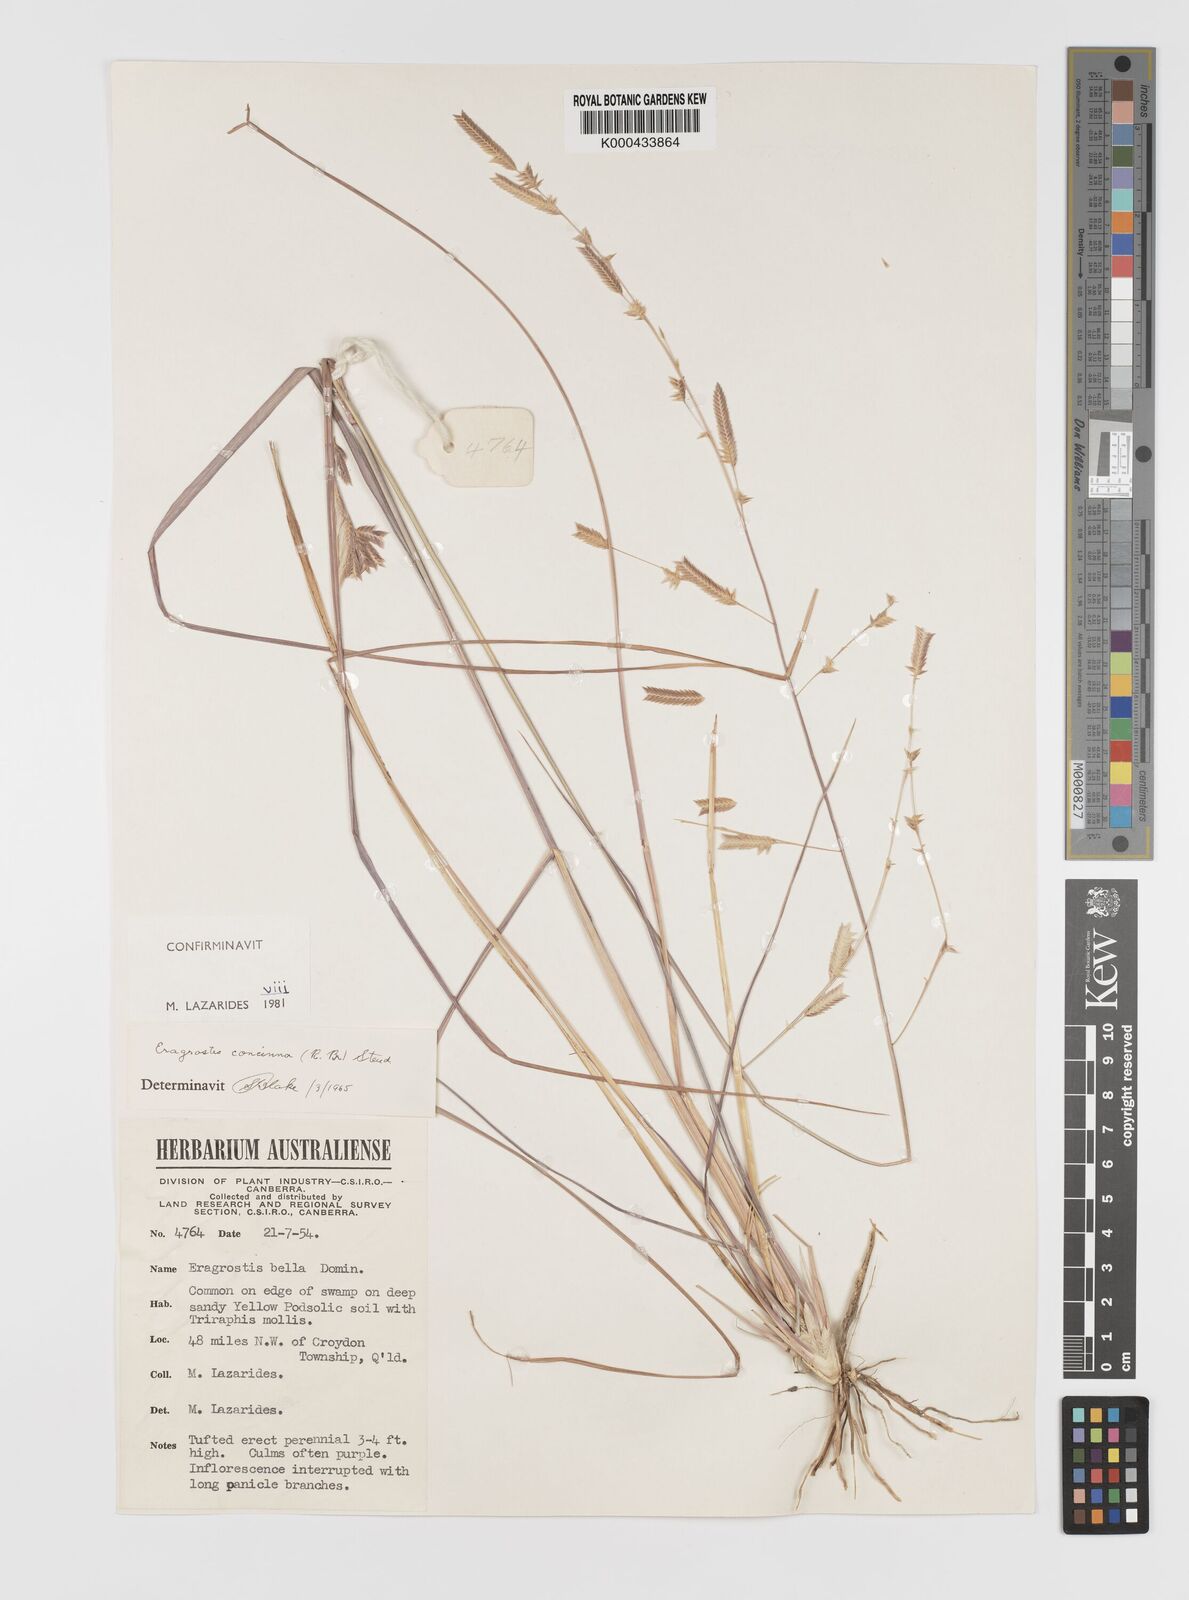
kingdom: Plantae
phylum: Tracheophyta
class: Liliopsida
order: Poales
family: Poaceae
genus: Eragrostis
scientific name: Eragrostis concinna
